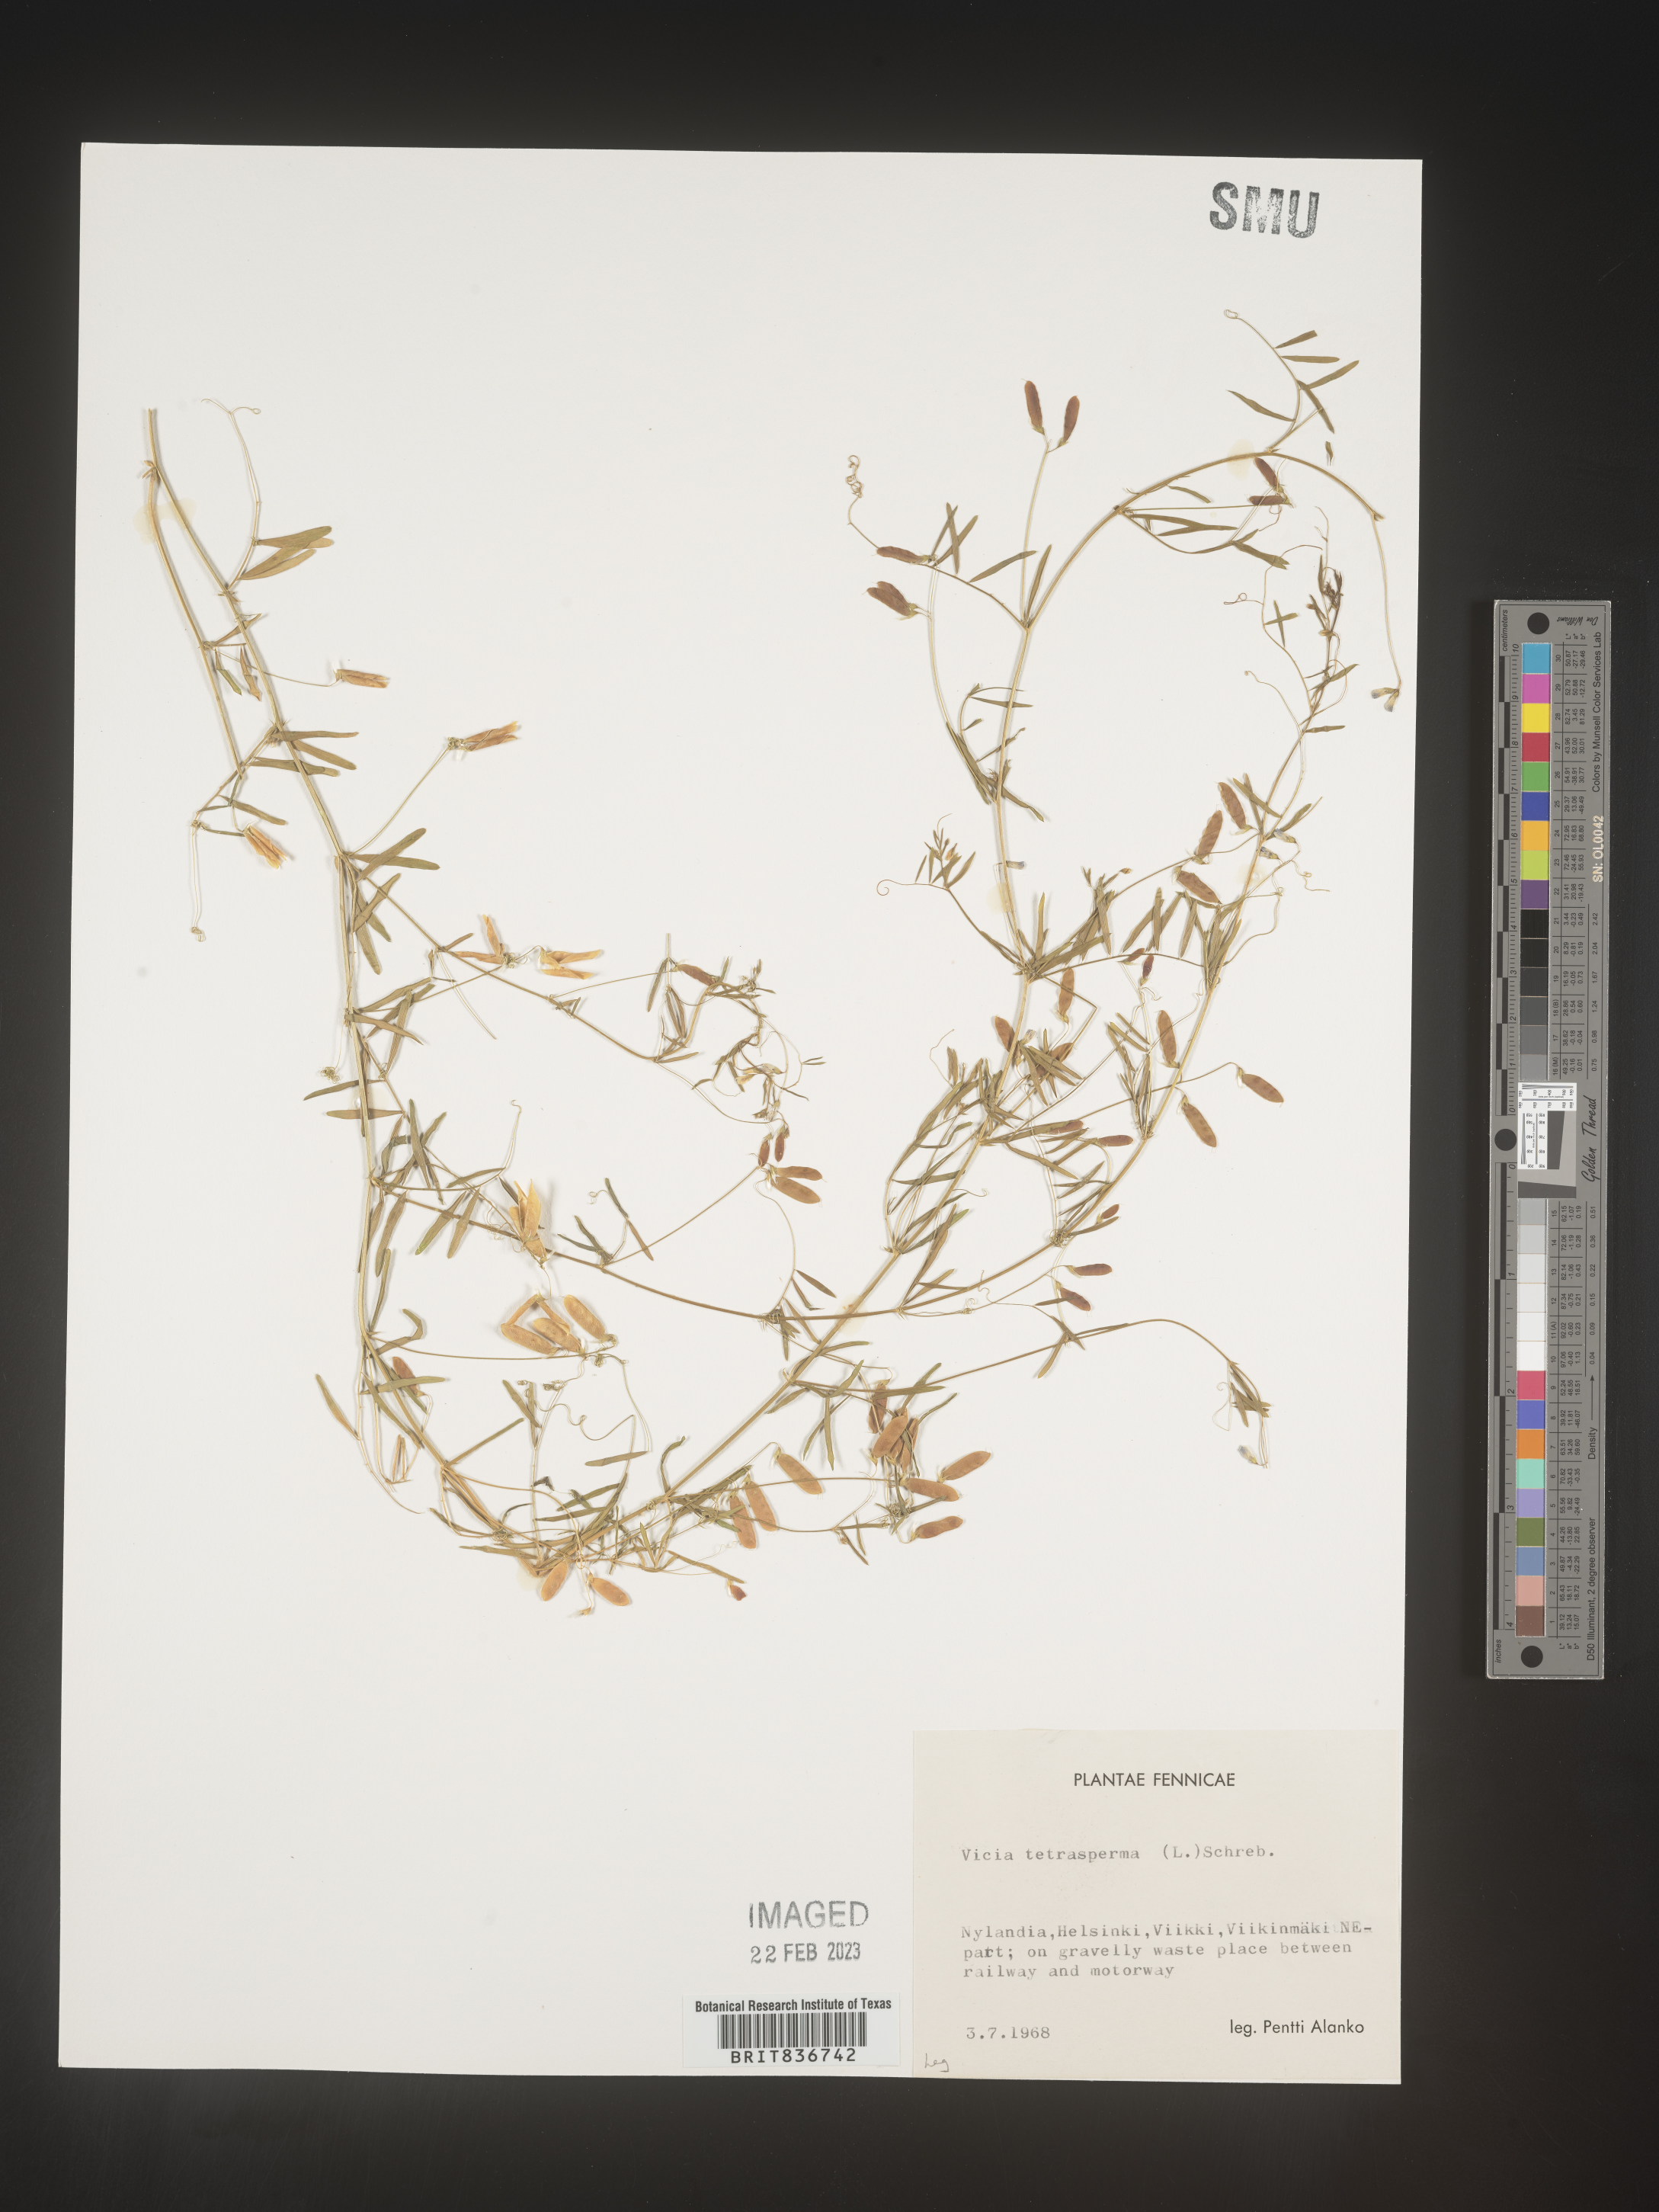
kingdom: Plantae
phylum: Tracheophyta
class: Magnoliopsida
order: Fabales
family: Fabaceae
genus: Vicia
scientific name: Vicia
